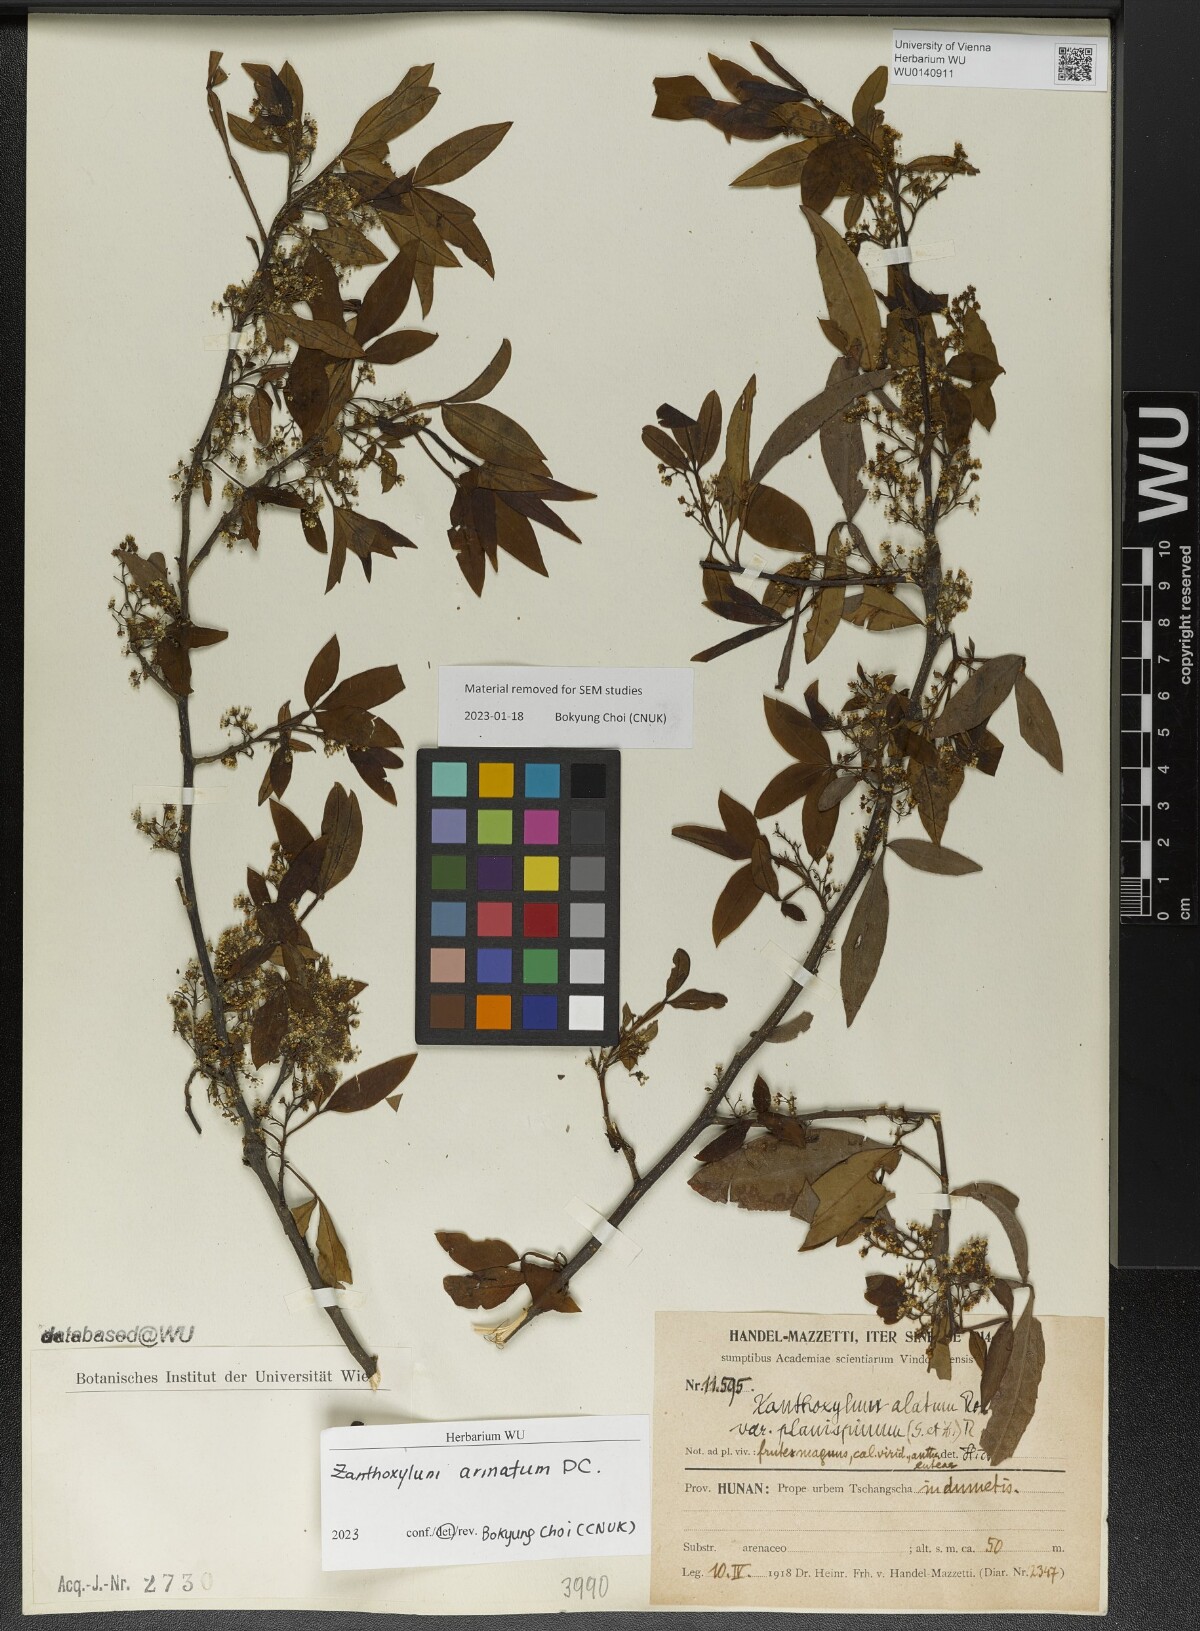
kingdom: Plantae
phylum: Tracheophyta
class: Magnoliopsida
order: Sapindales
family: Rutaceae
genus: Zanthoxylum
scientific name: Zanthoxylum armatum
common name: Winged prickly-ash
